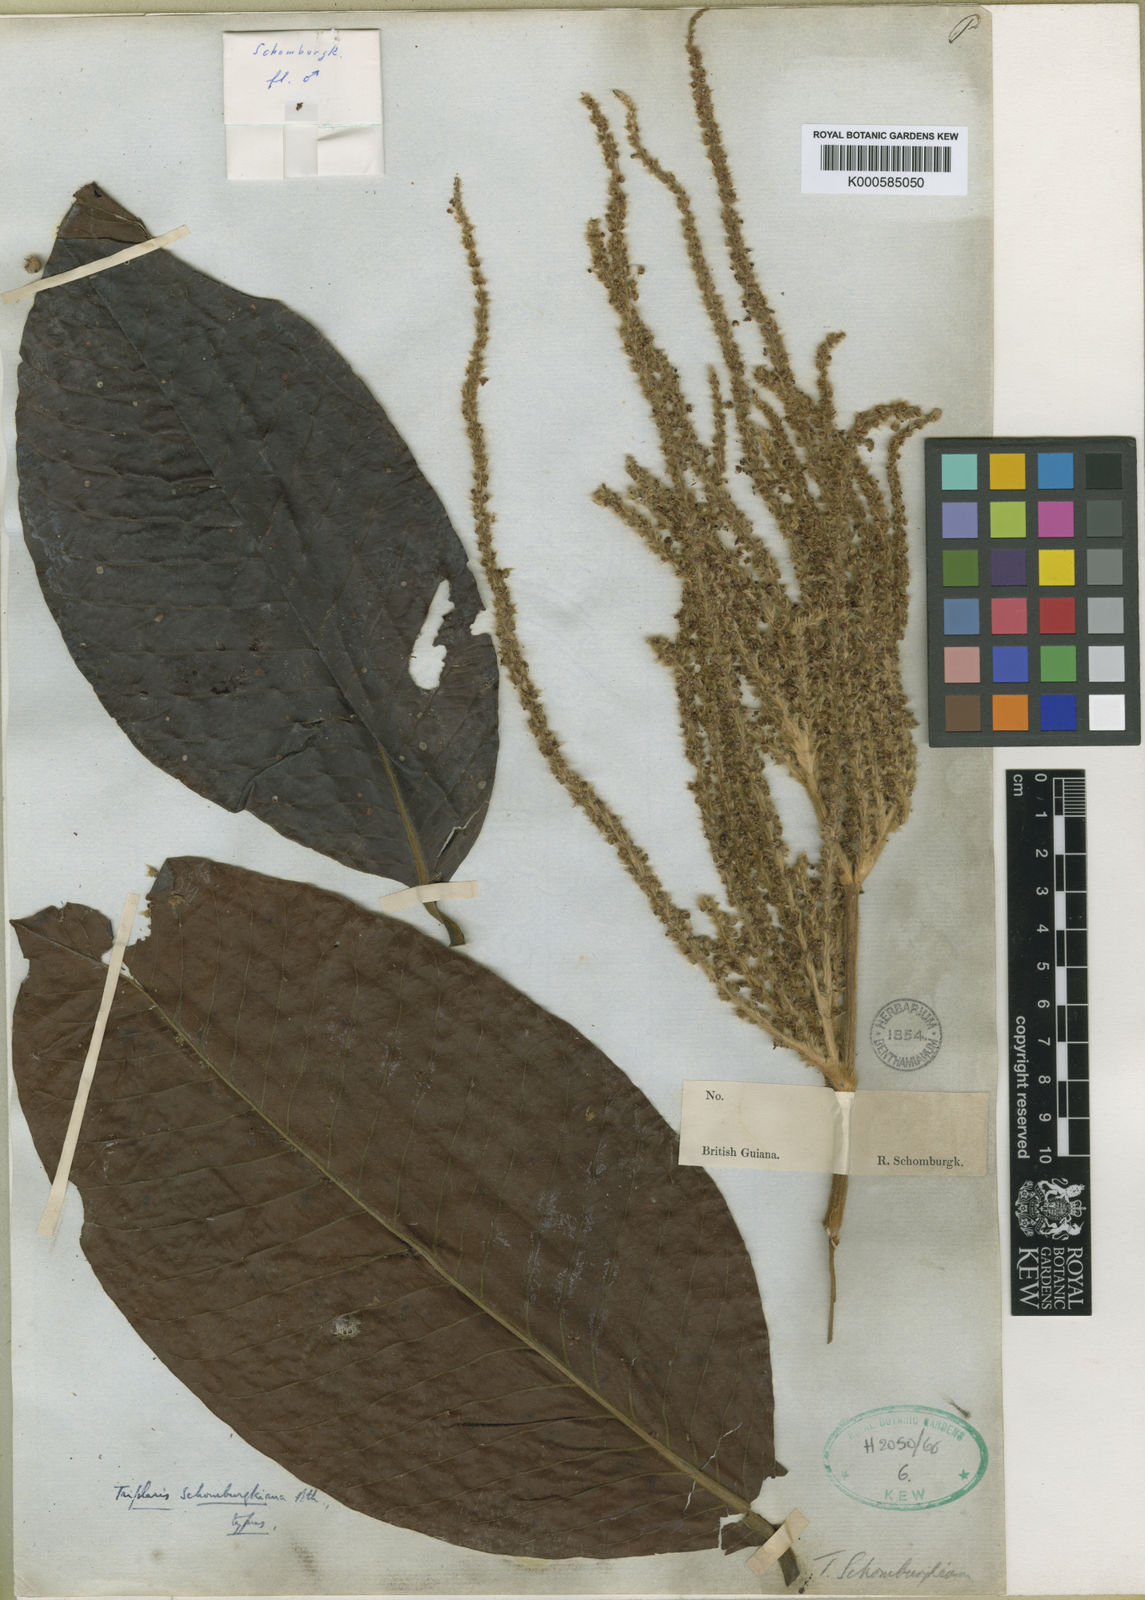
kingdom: Plantae
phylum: Tracheophyta
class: Magnoliopsida
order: Caryophyllales
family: Polygonaceae
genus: Triplaris
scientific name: Triplaris americana
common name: Ant-tree
